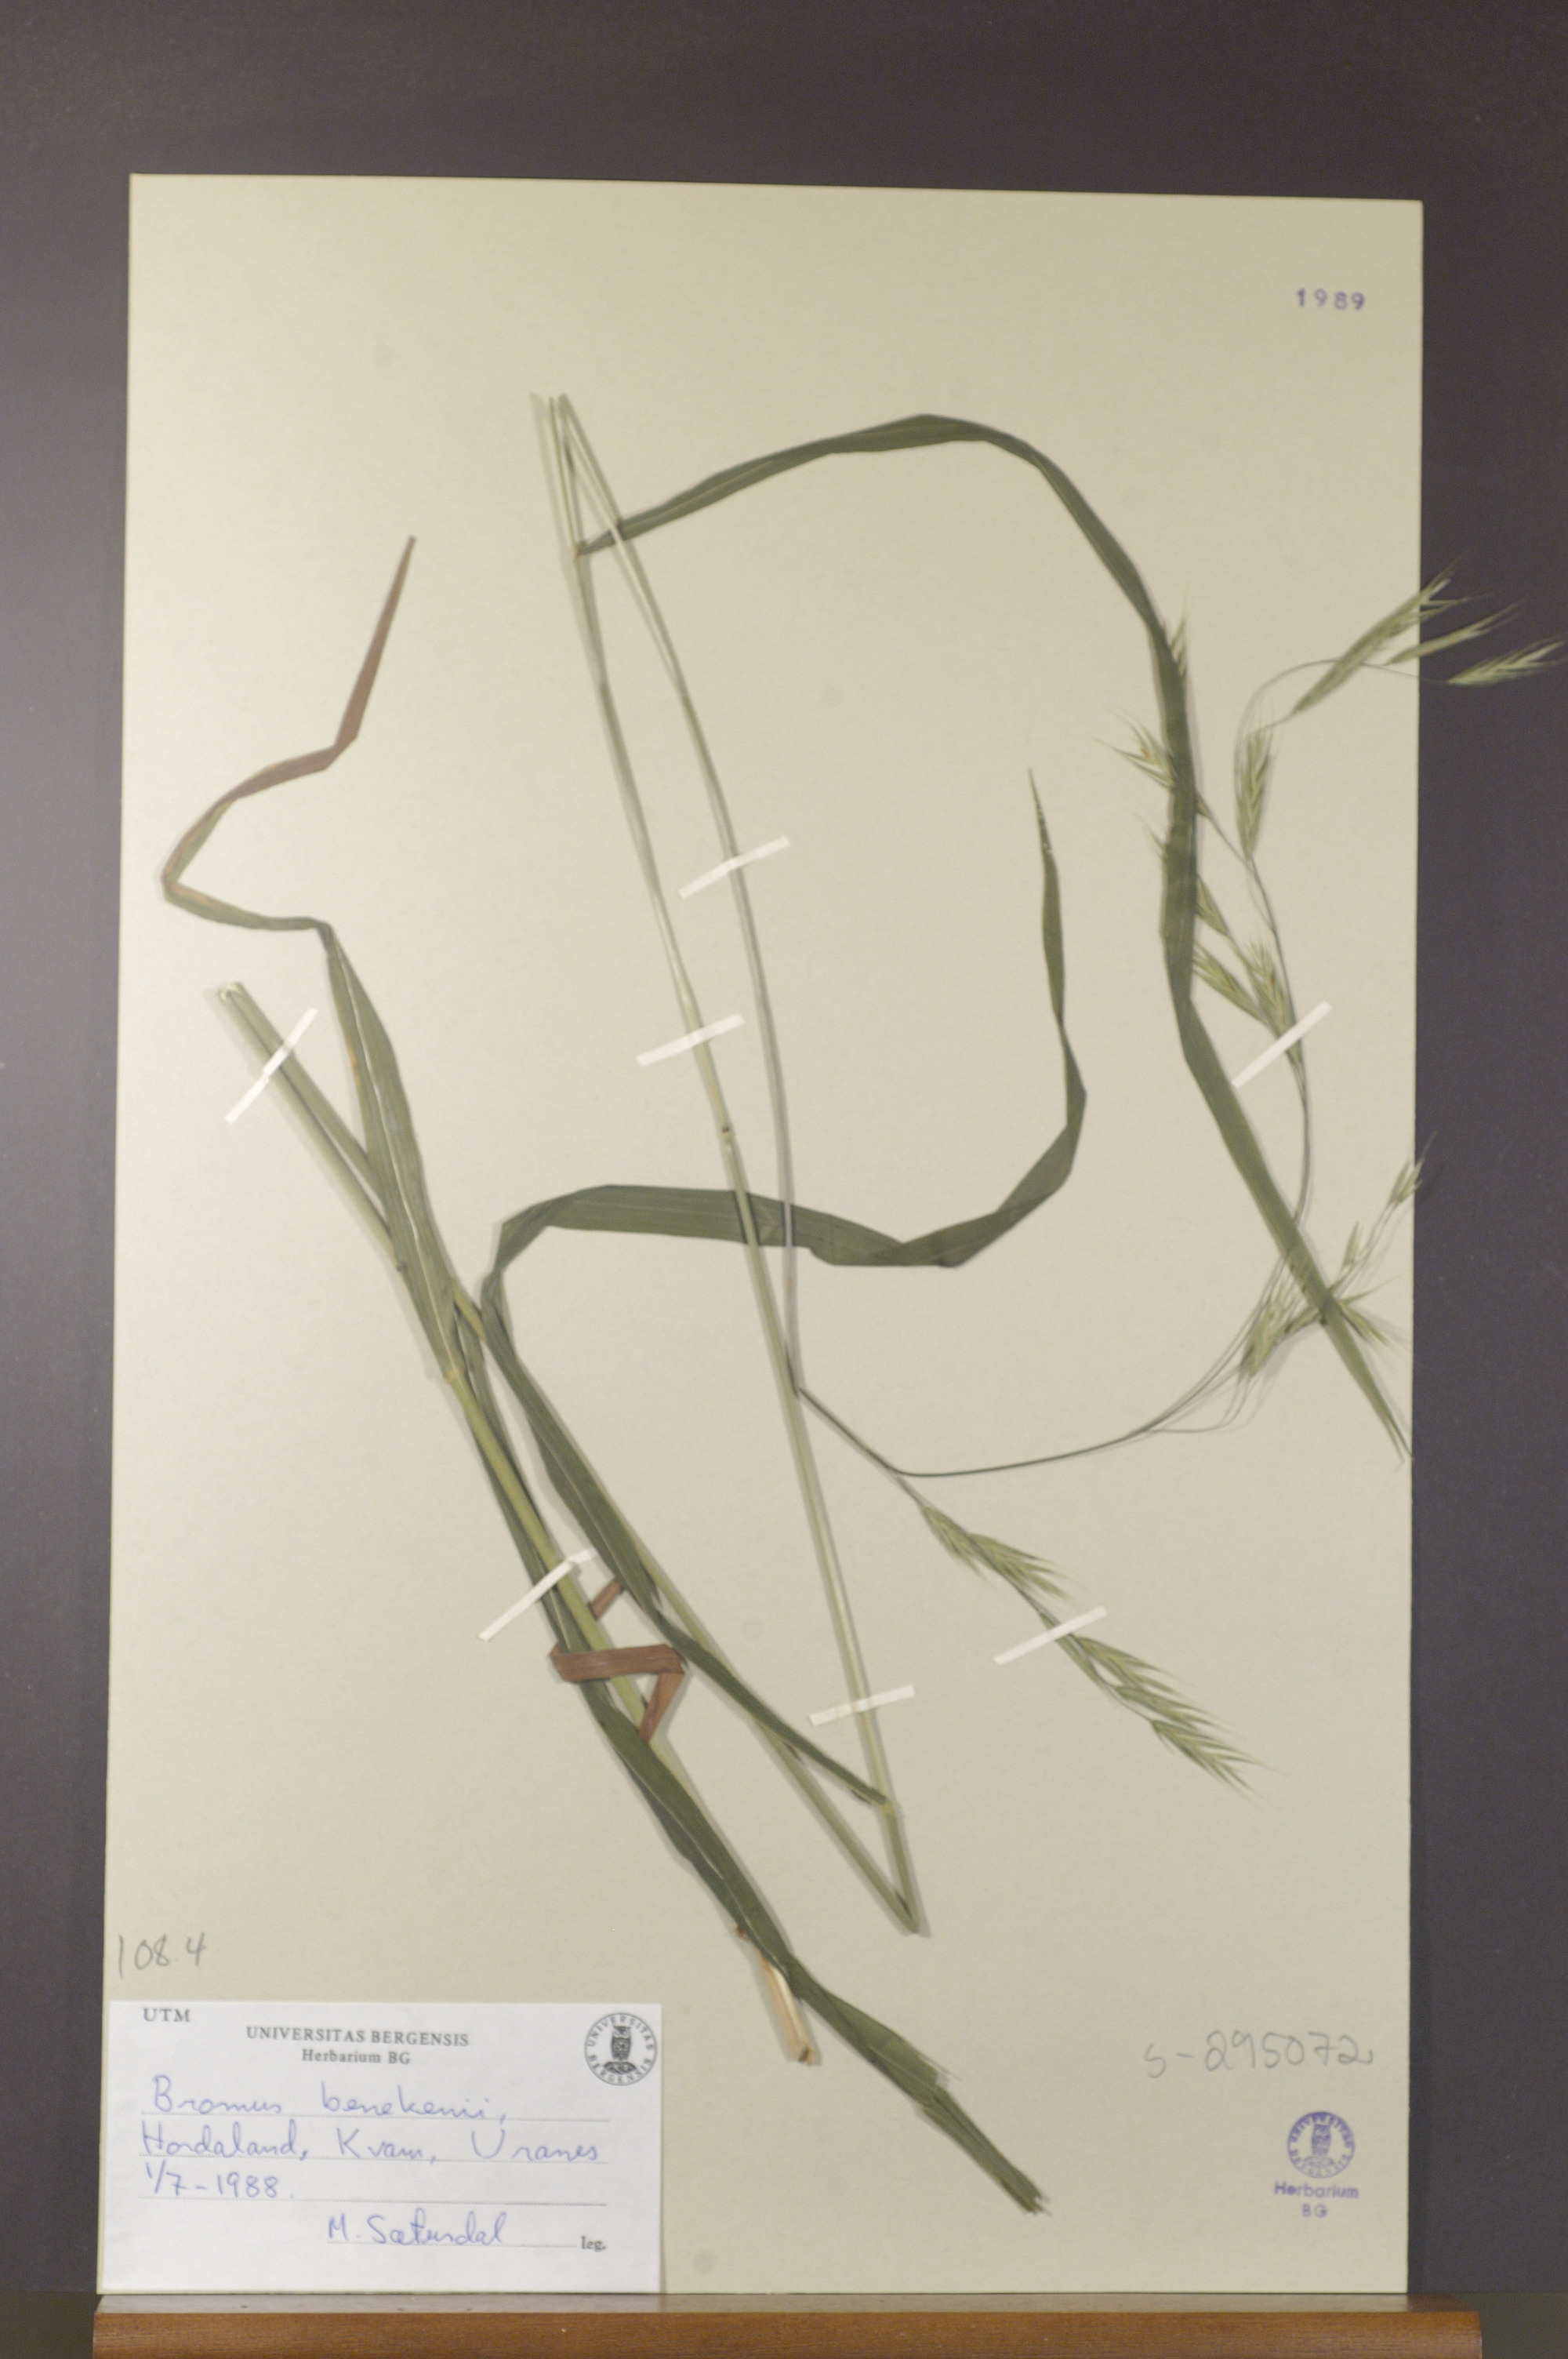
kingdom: Plantae
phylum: Tracheophyta
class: Liliopsida
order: Poales
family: Poaceae
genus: Bromus
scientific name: Bromus benekenii
